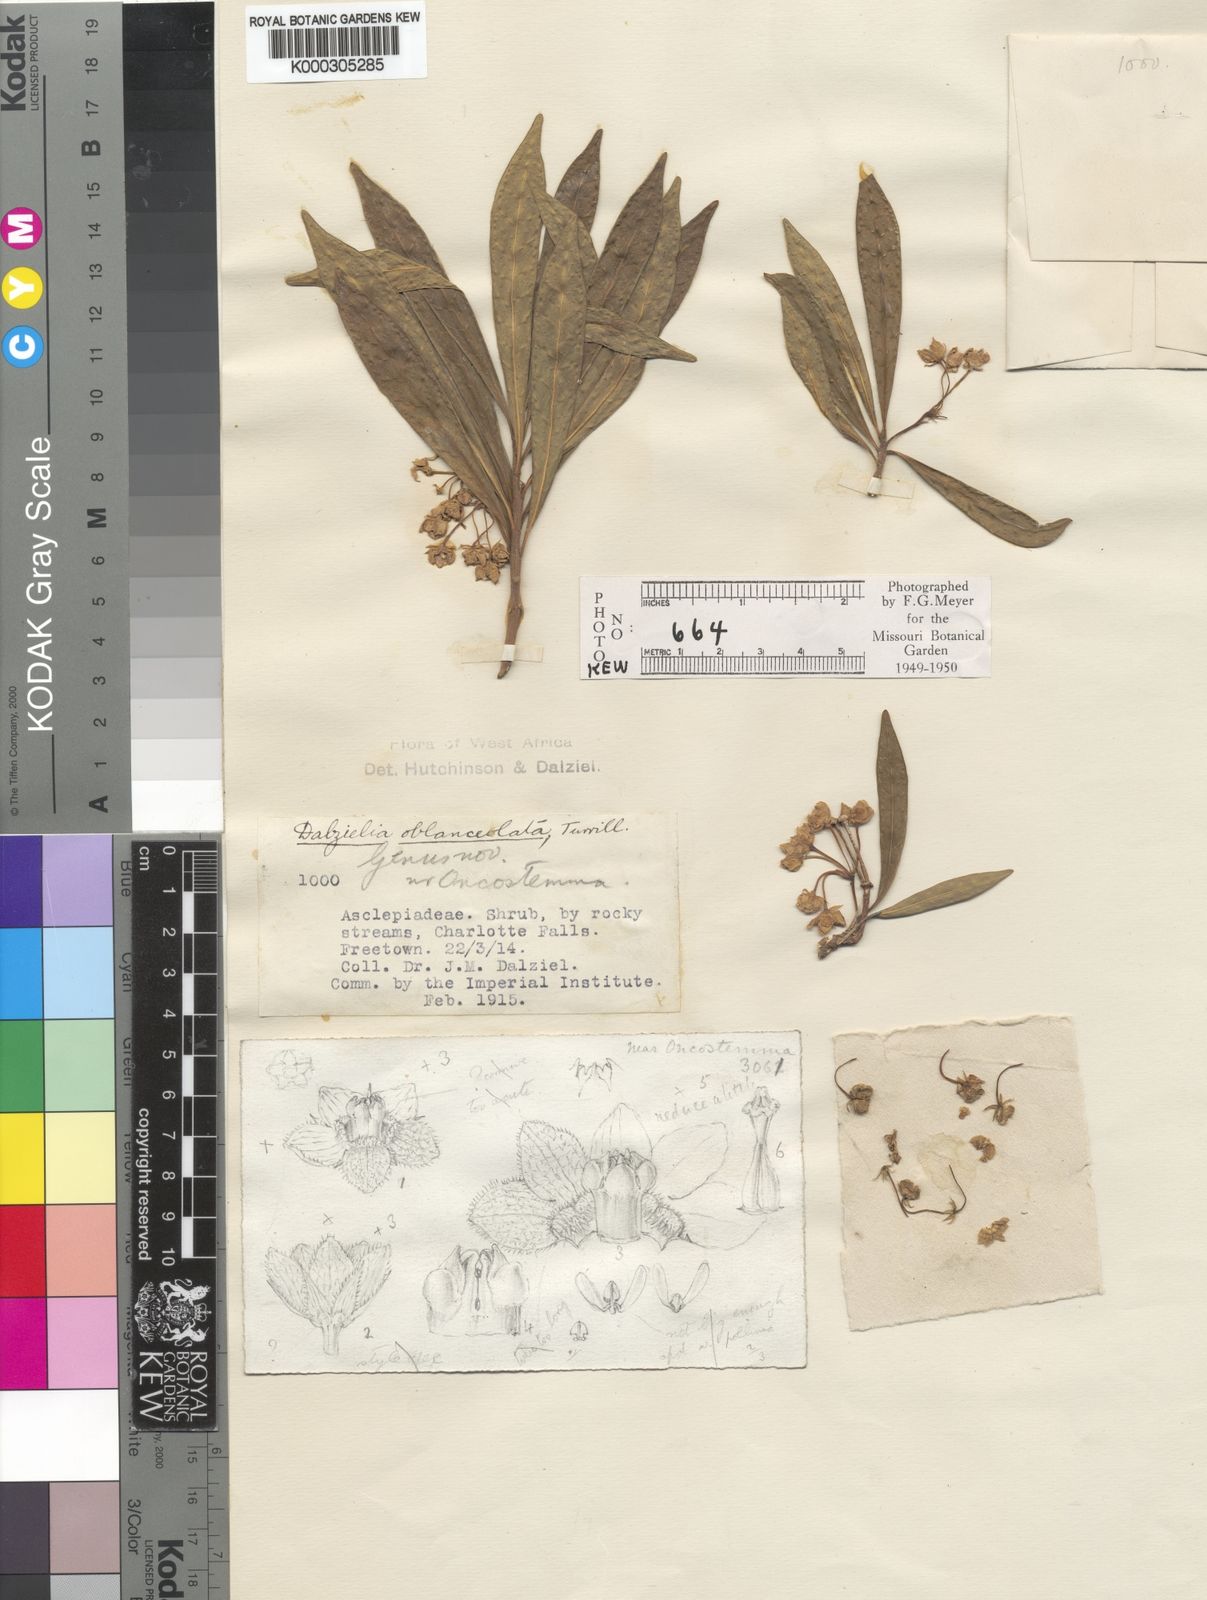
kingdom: Plantae
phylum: Tracheophyta
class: Magnoliopsida
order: Gentianales
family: Apocynaceae
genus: Dalzielia
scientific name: Dalzielia oblanceolata
